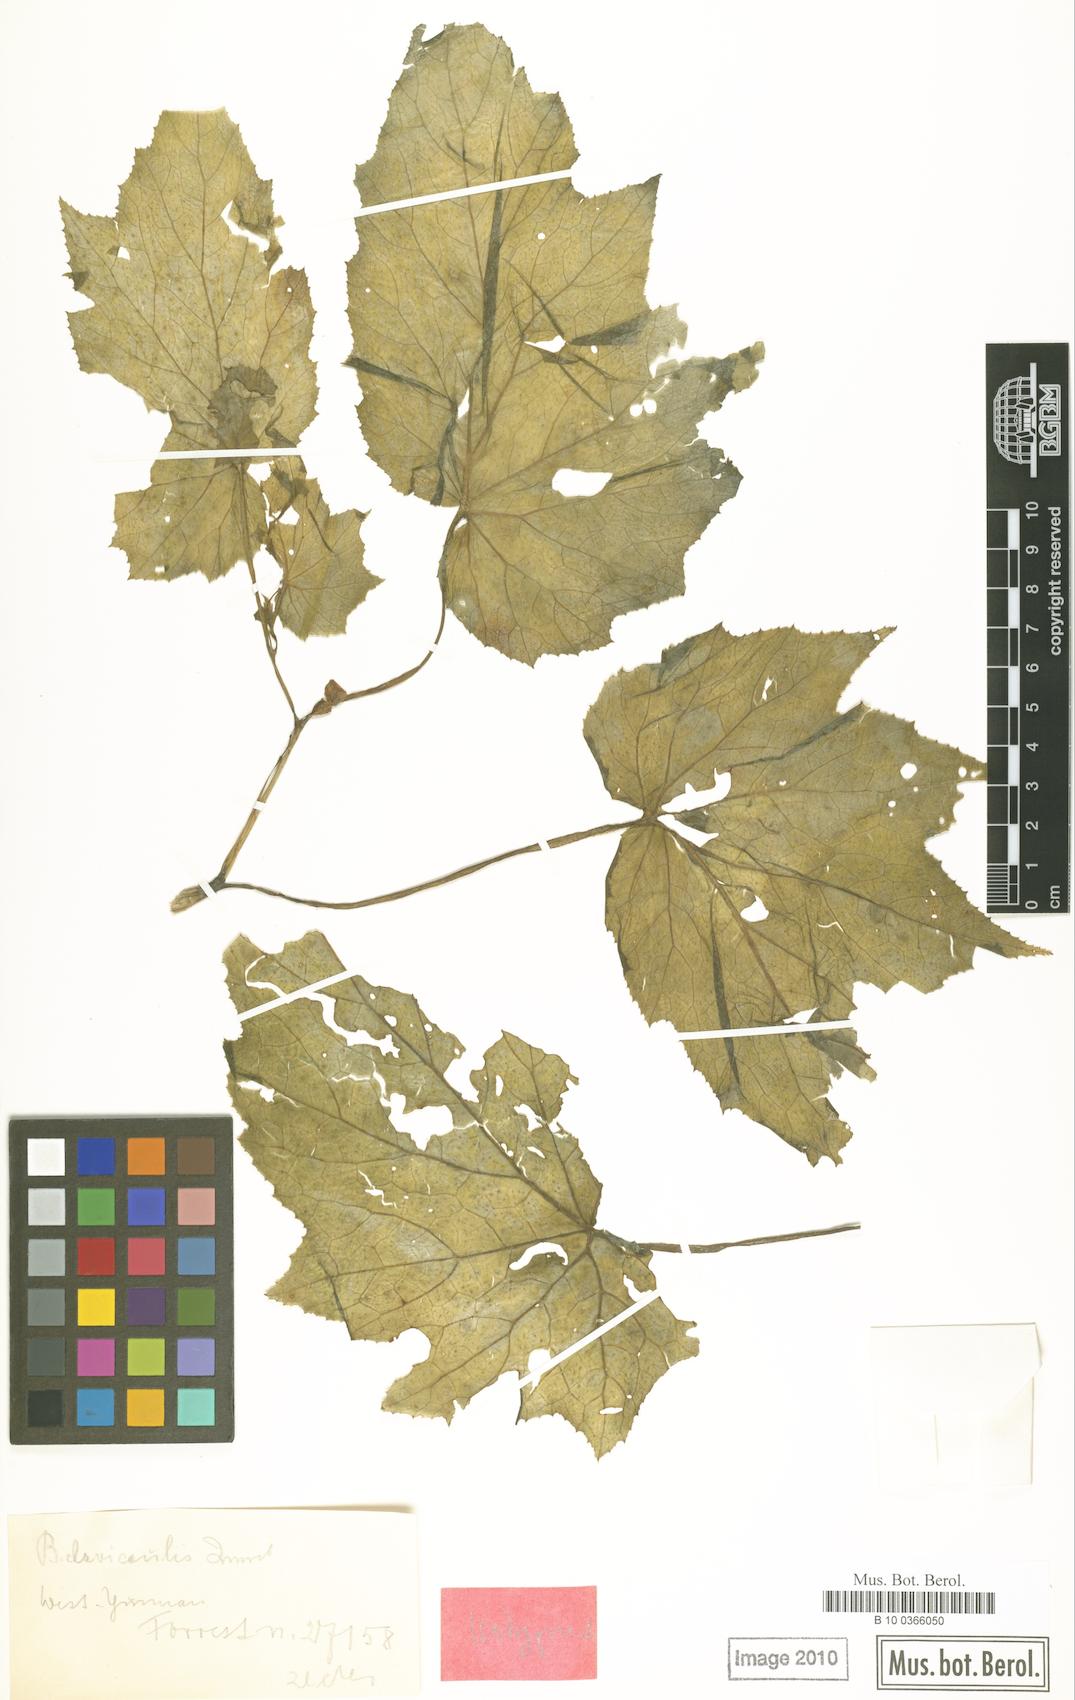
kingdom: Plantae
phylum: Tracheophyta
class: Magnoliopsida
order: Cucurbitales
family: Begoniaceae
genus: Begonia
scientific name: Begonia clavicaulis
